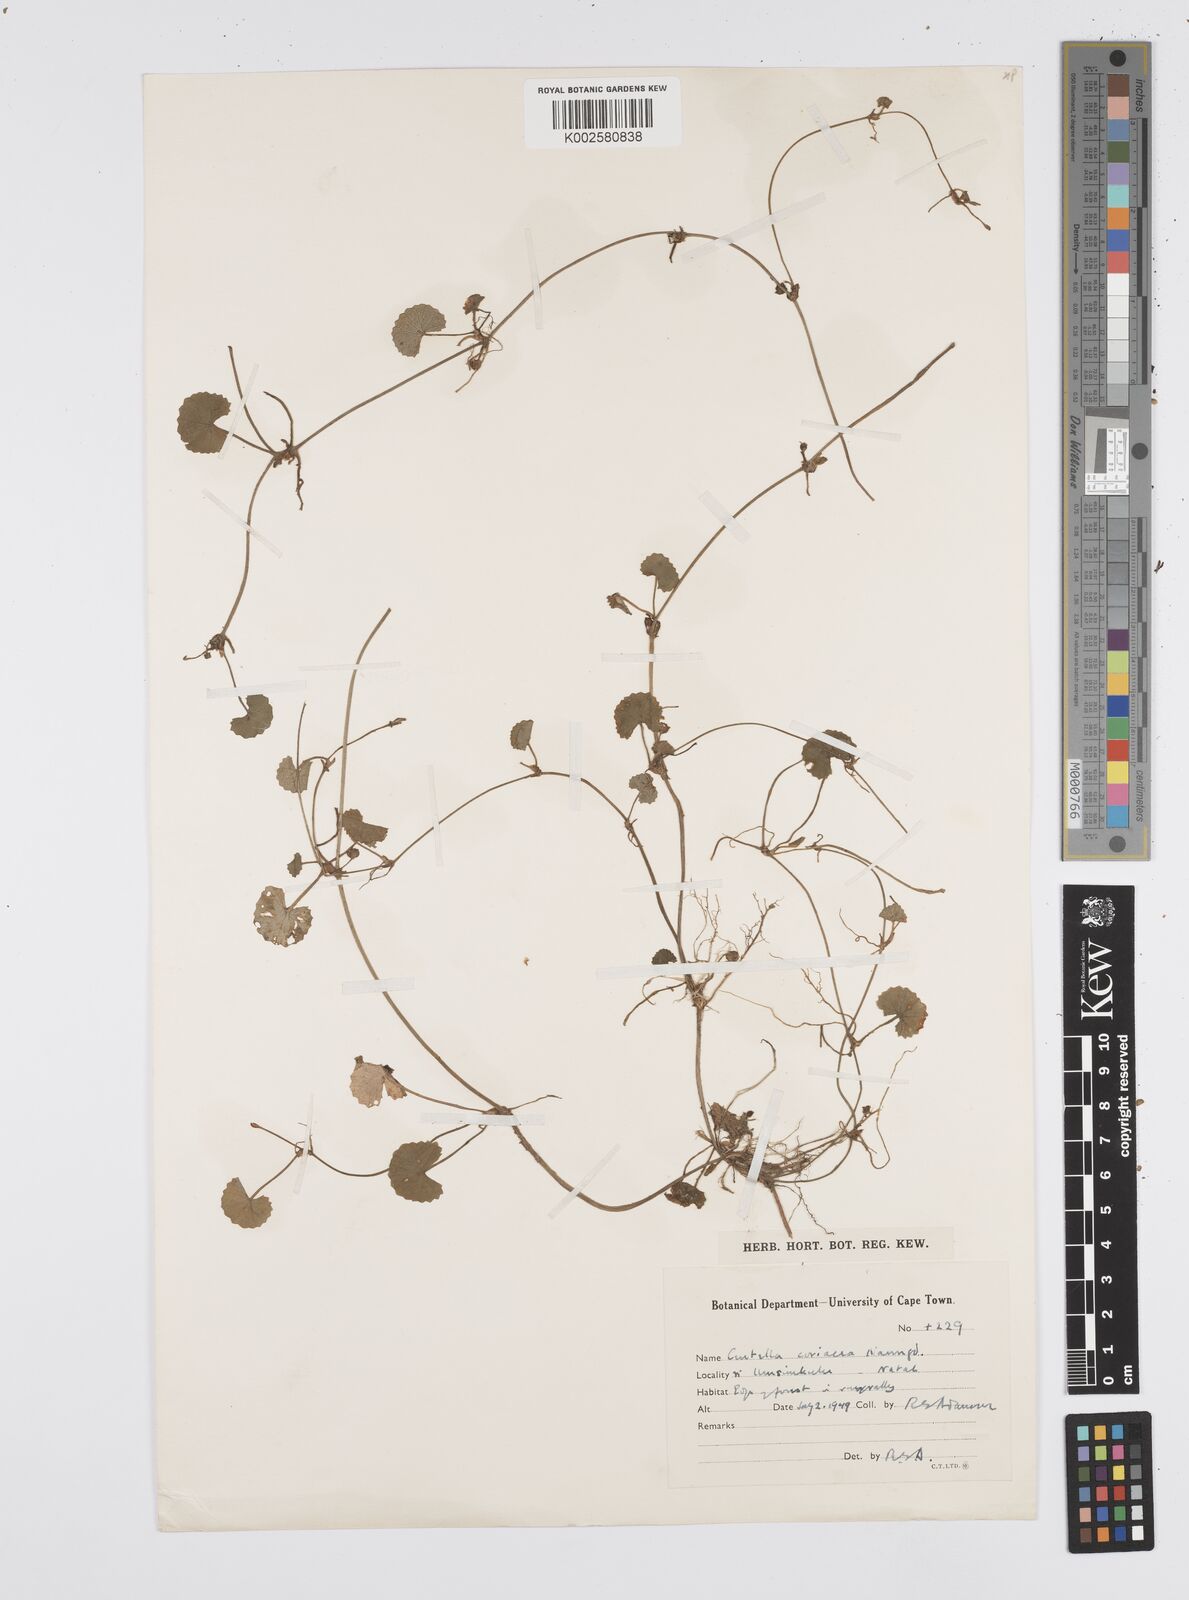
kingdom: Plantae
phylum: Tracheophyta
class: Magnoliopsida
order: Apiales
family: Apiaceae
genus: Centella
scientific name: Centella coriacea
